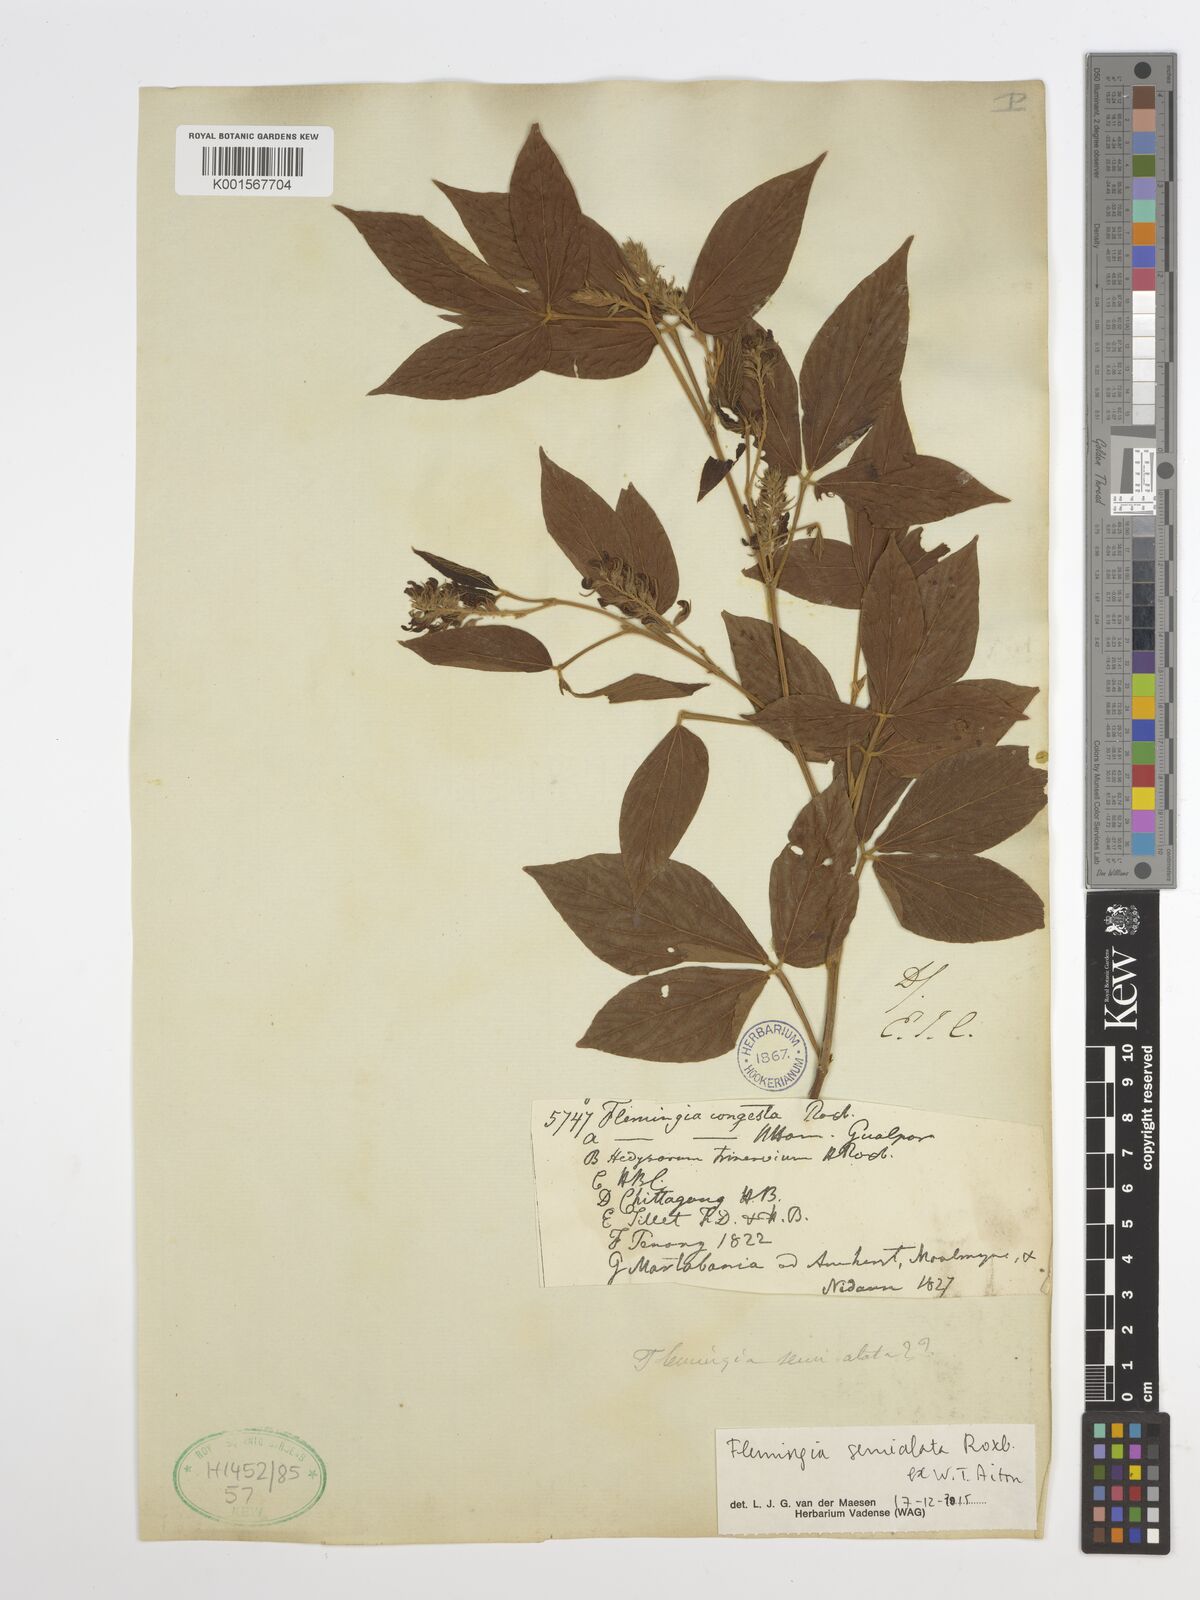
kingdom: Plantae
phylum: Tracheophyta
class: Magnoliopsida
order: Fabales
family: Fabaceae
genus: Flemingia
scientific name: Flemingia semialata
